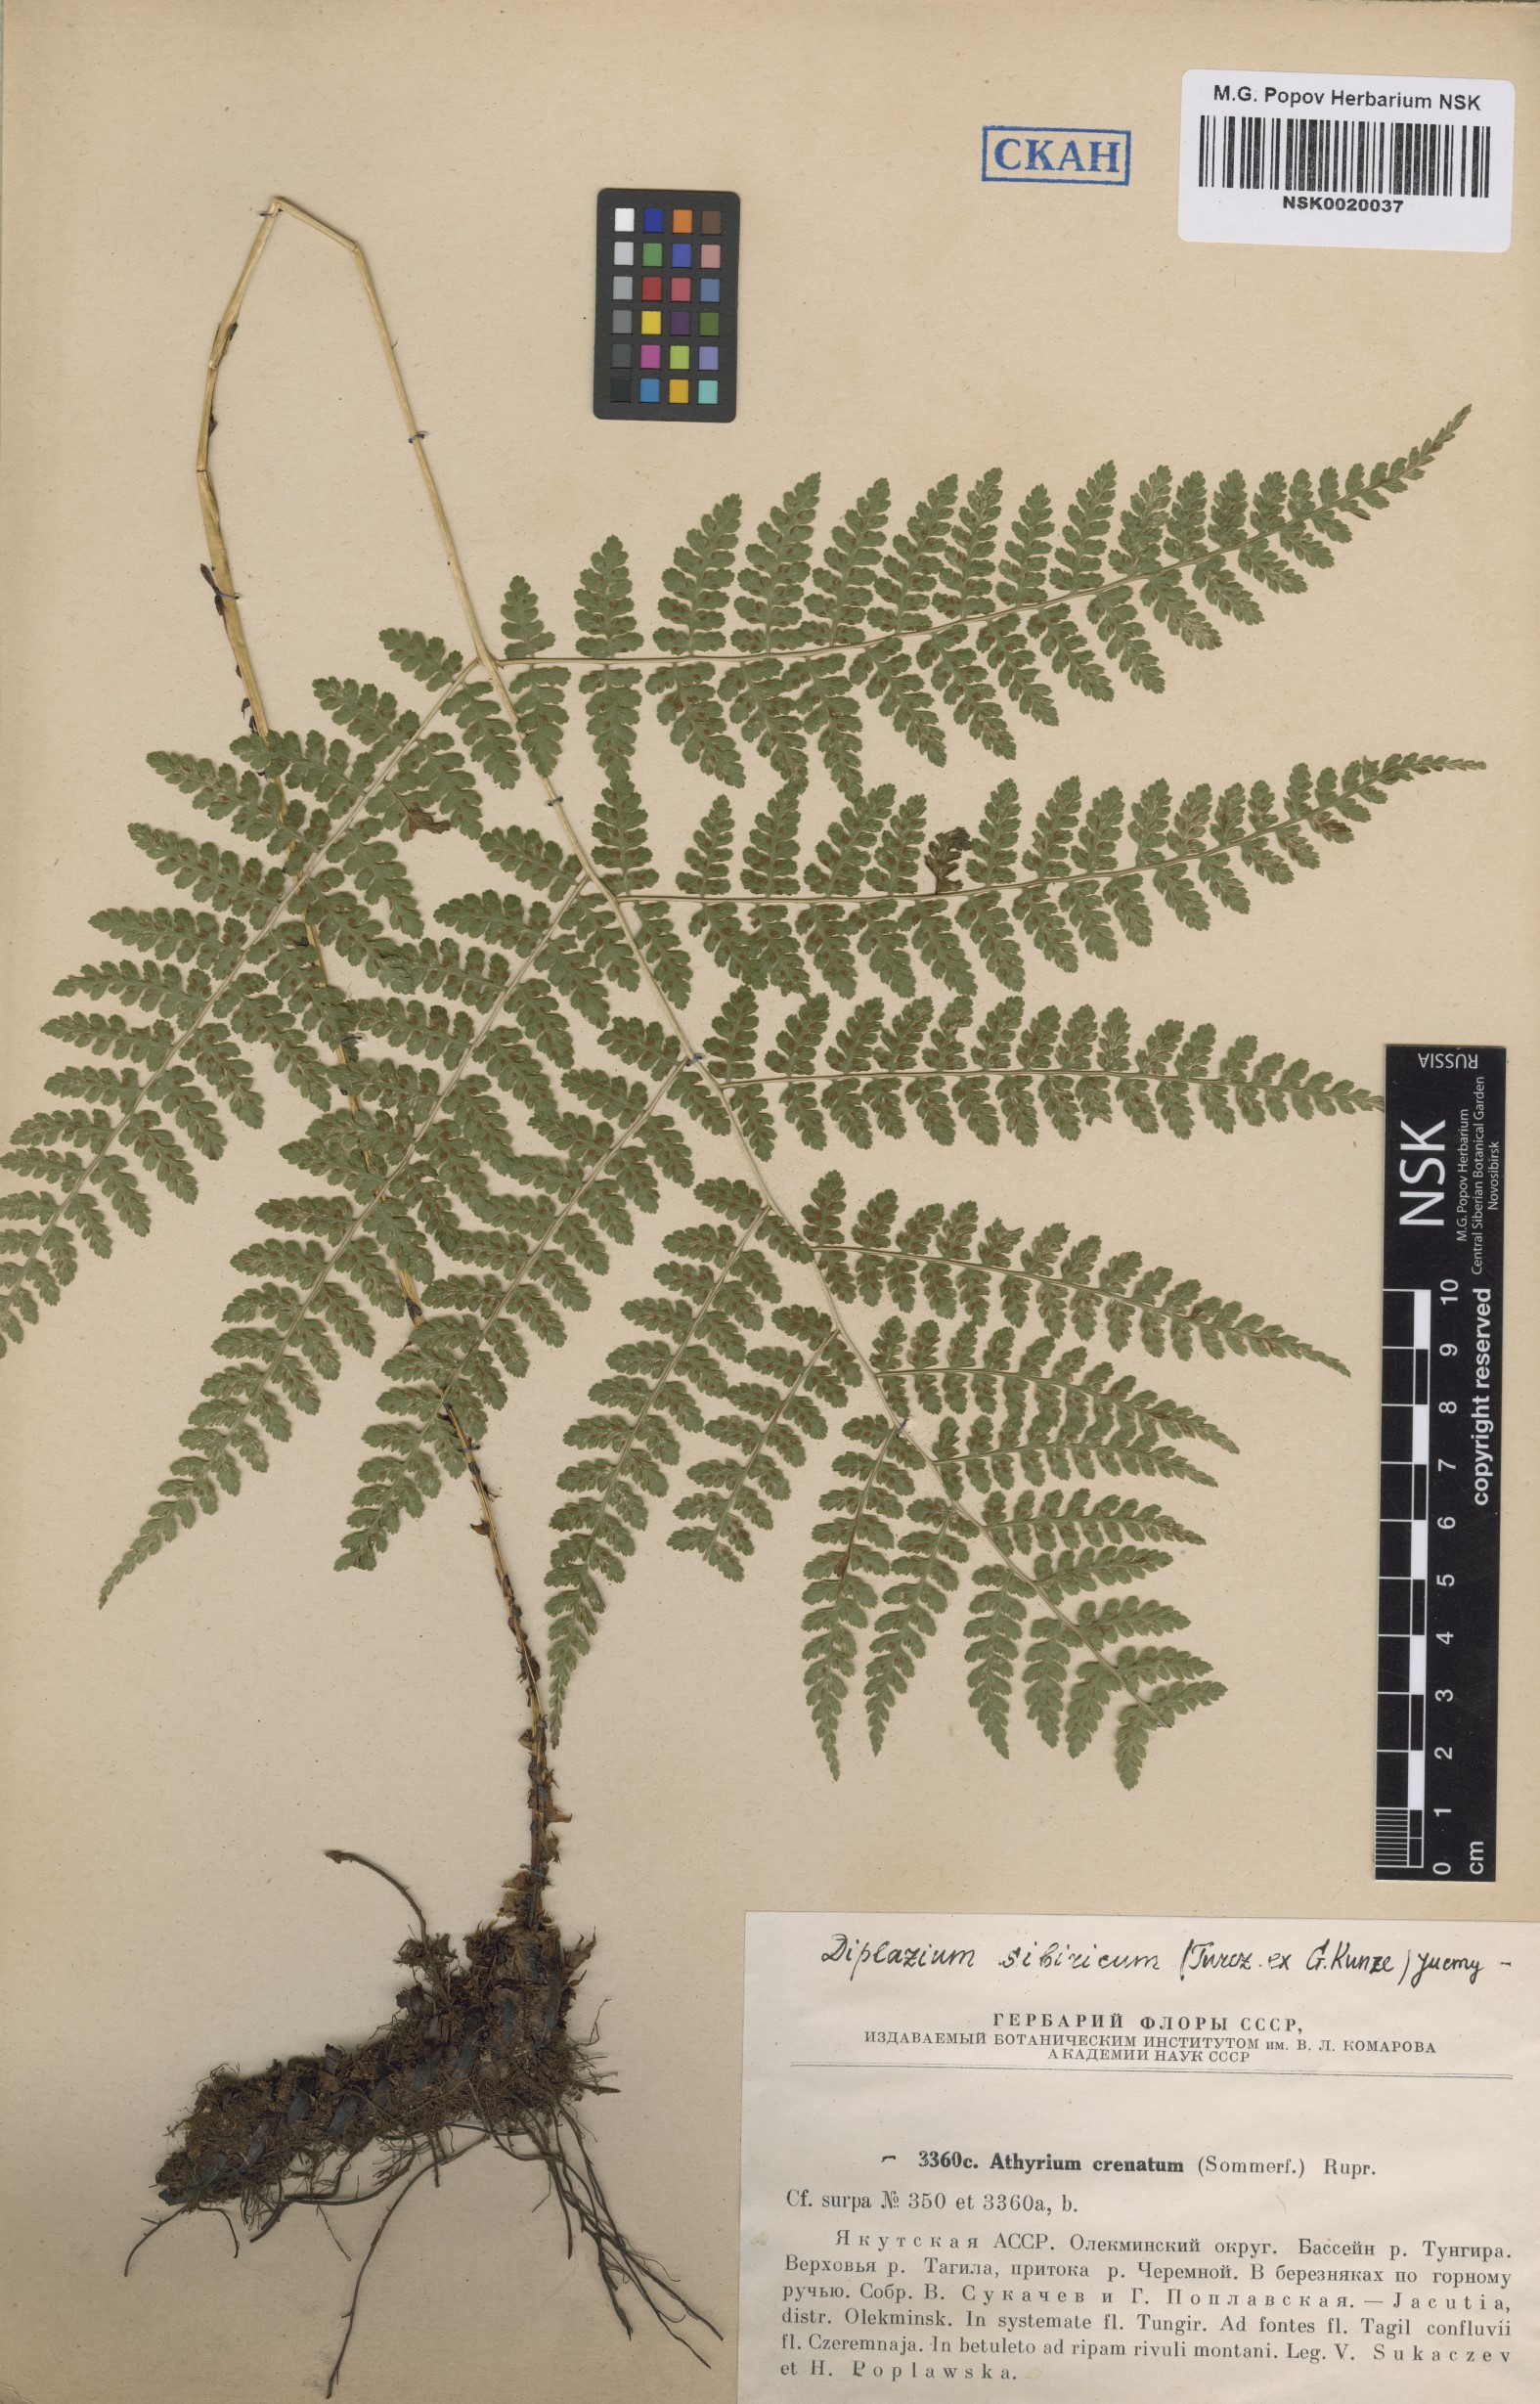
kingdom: Plantae
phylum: Tracheophyta
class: Polypodiopsida
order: Polypodiales
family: Athyriaceae
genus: Diplazium
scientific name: Diplazium sibiricum
